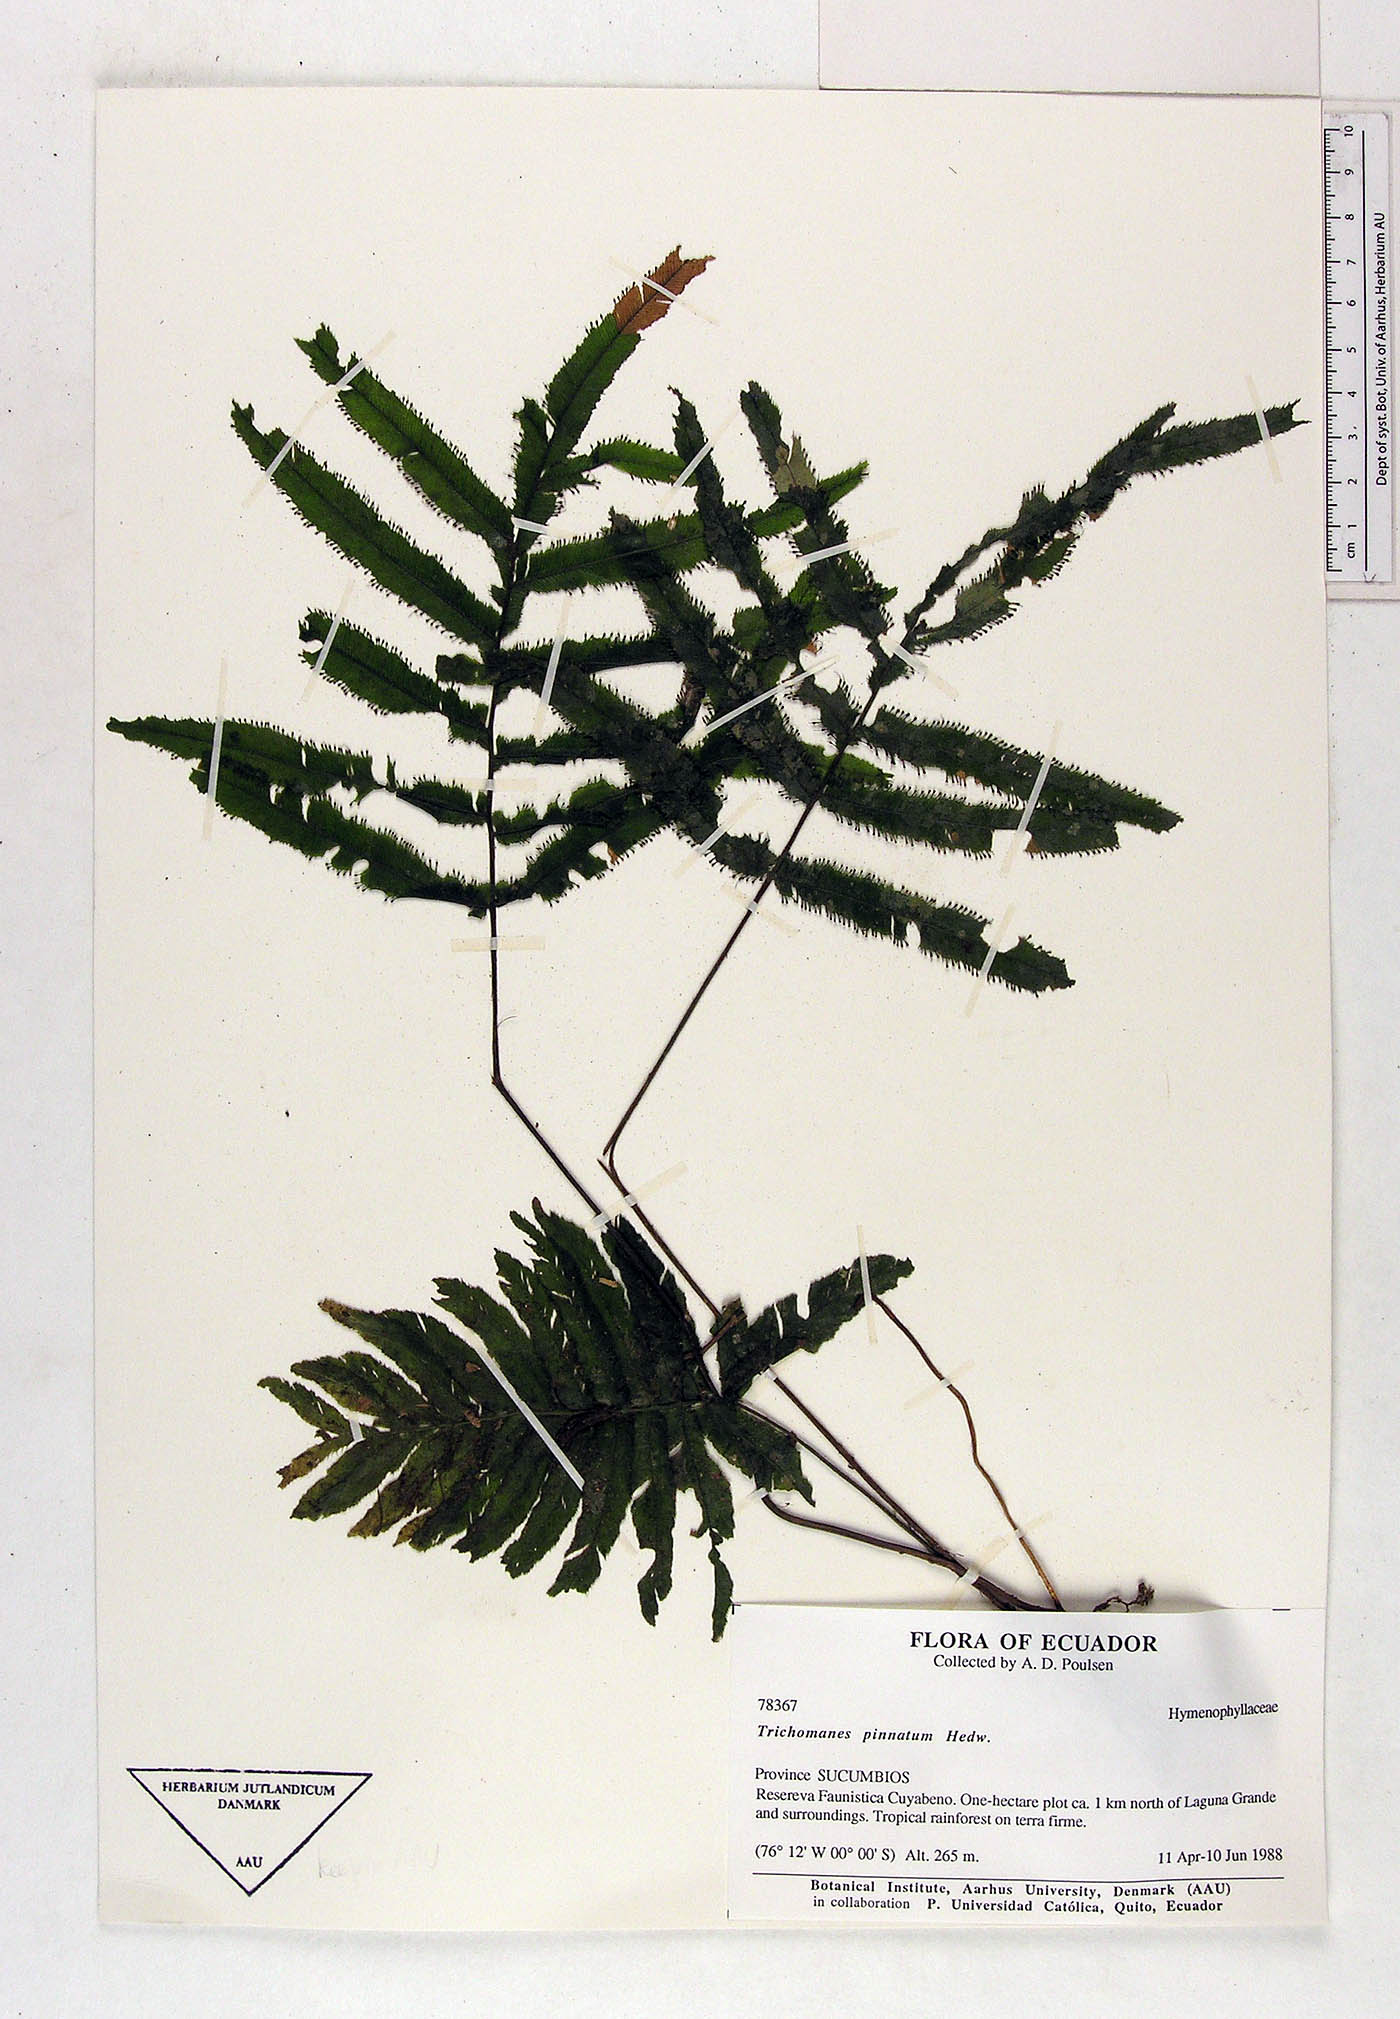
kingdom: Plantae
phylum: Tracheophyta
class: Polypodiopsida
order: Hymenophyllales
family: Hymenophyllaceae
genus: Trichomanes
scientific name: Trichomanes pinnatum
